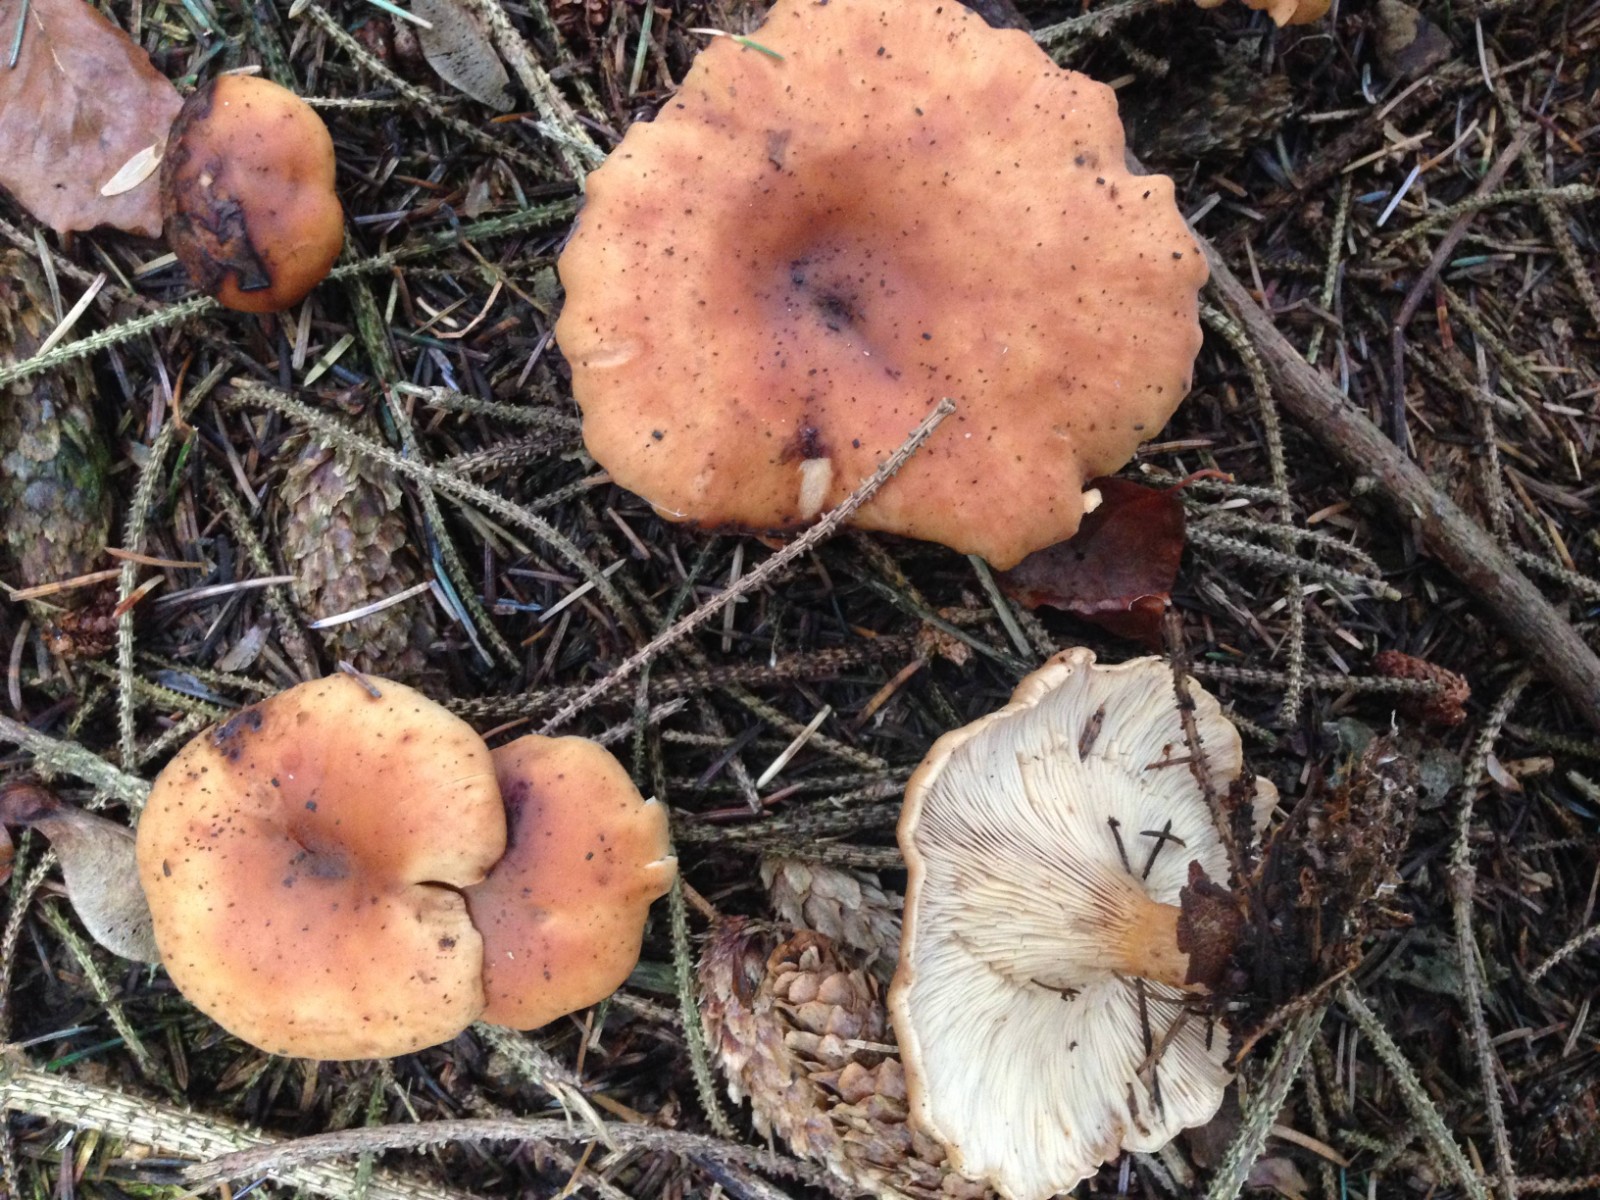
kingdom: Fungi
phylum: Basidiomycota
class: Agaricomycetes
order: Agaricales
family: Tricholomataceae
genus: Paralepista
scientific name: Paralepista flaccida
